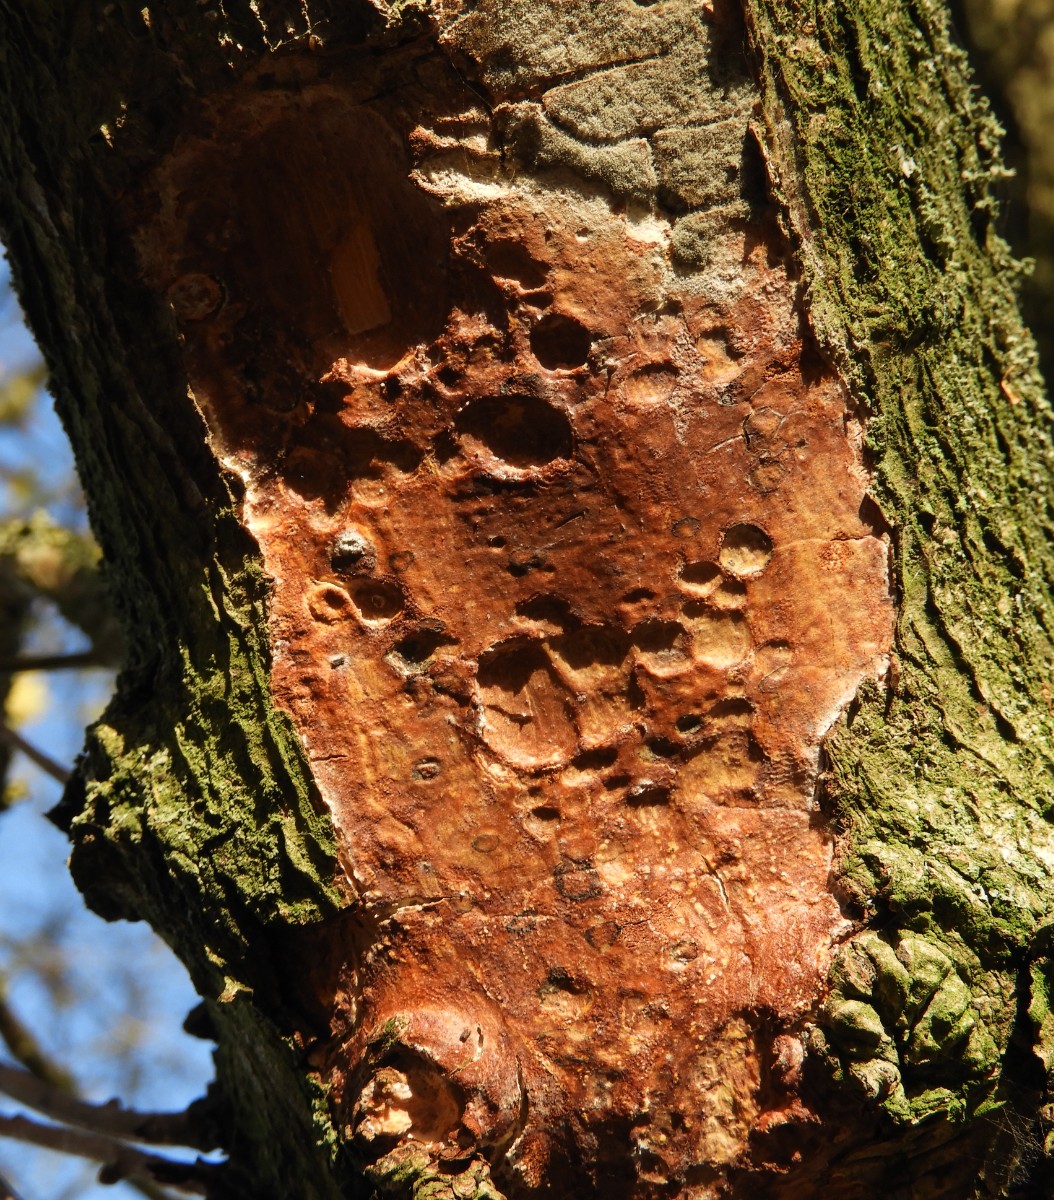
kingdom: Fungi
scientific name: Fungi
